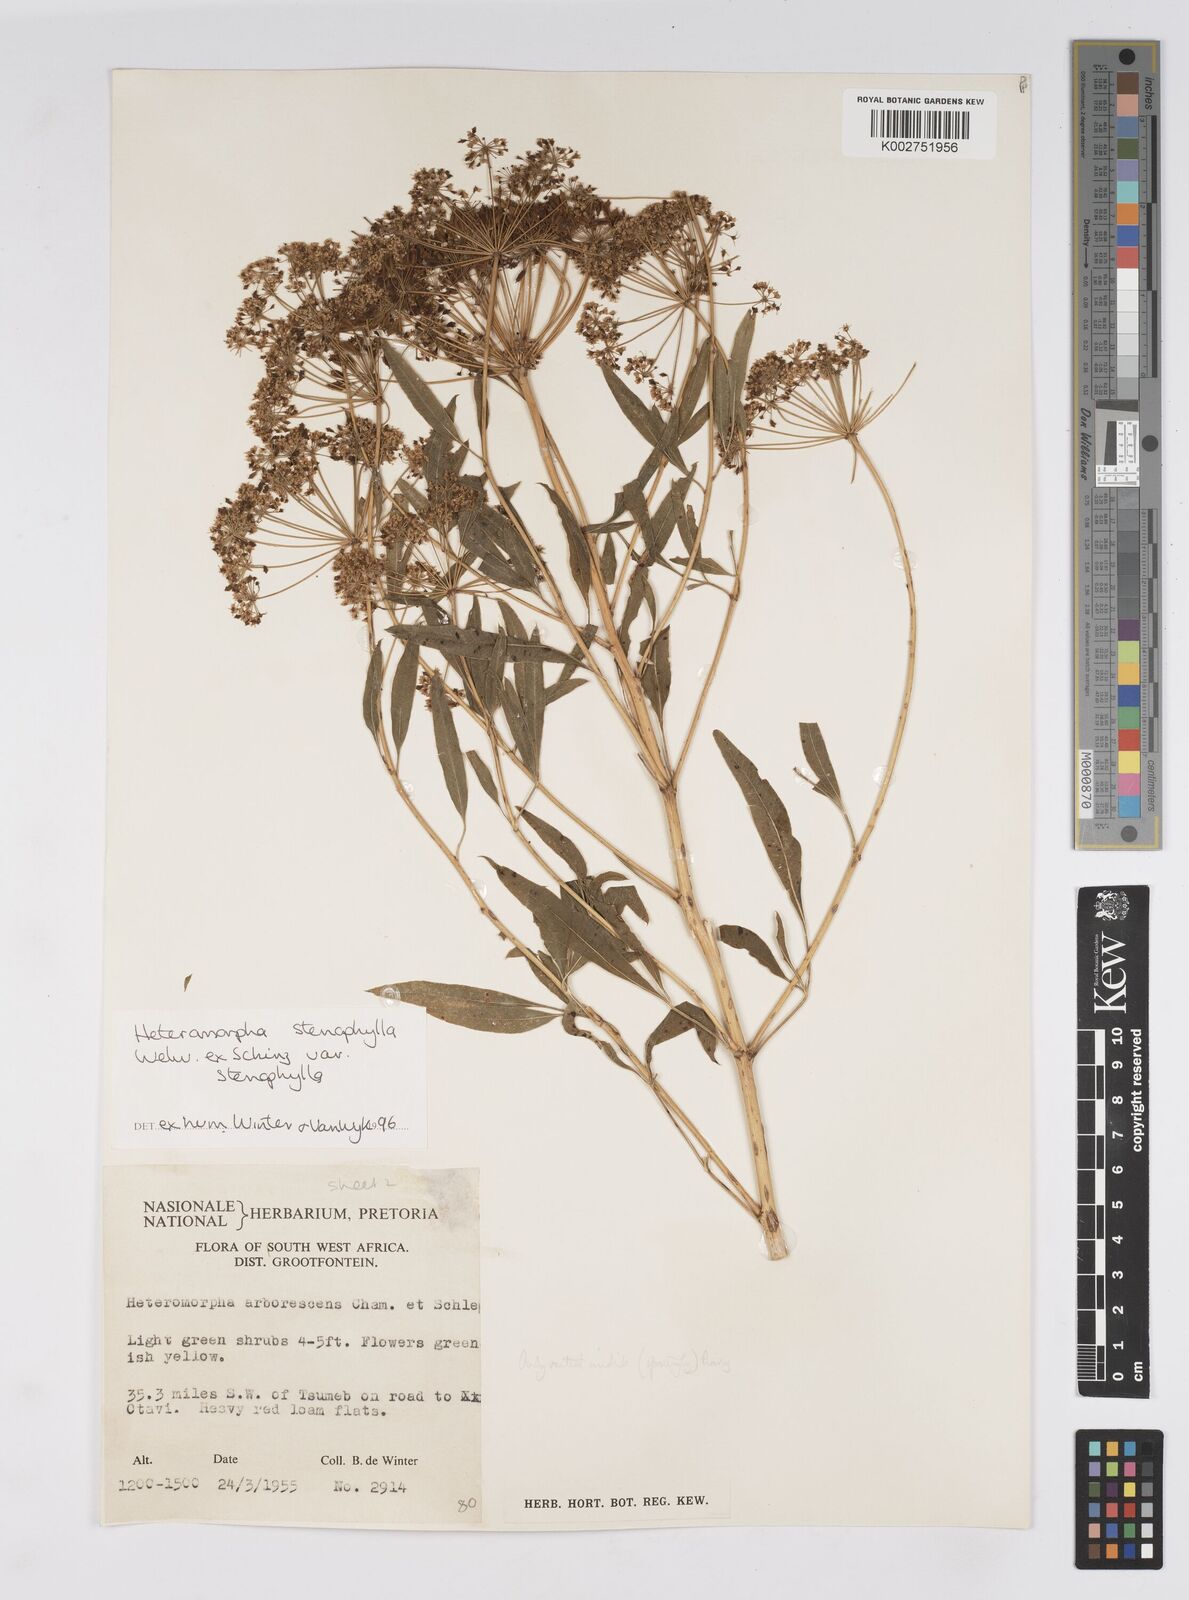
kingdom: Plantae
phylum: Tracheophyta
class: Magnoliopsida
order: Apiales
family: Apiaceae
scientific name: Apiaceae
